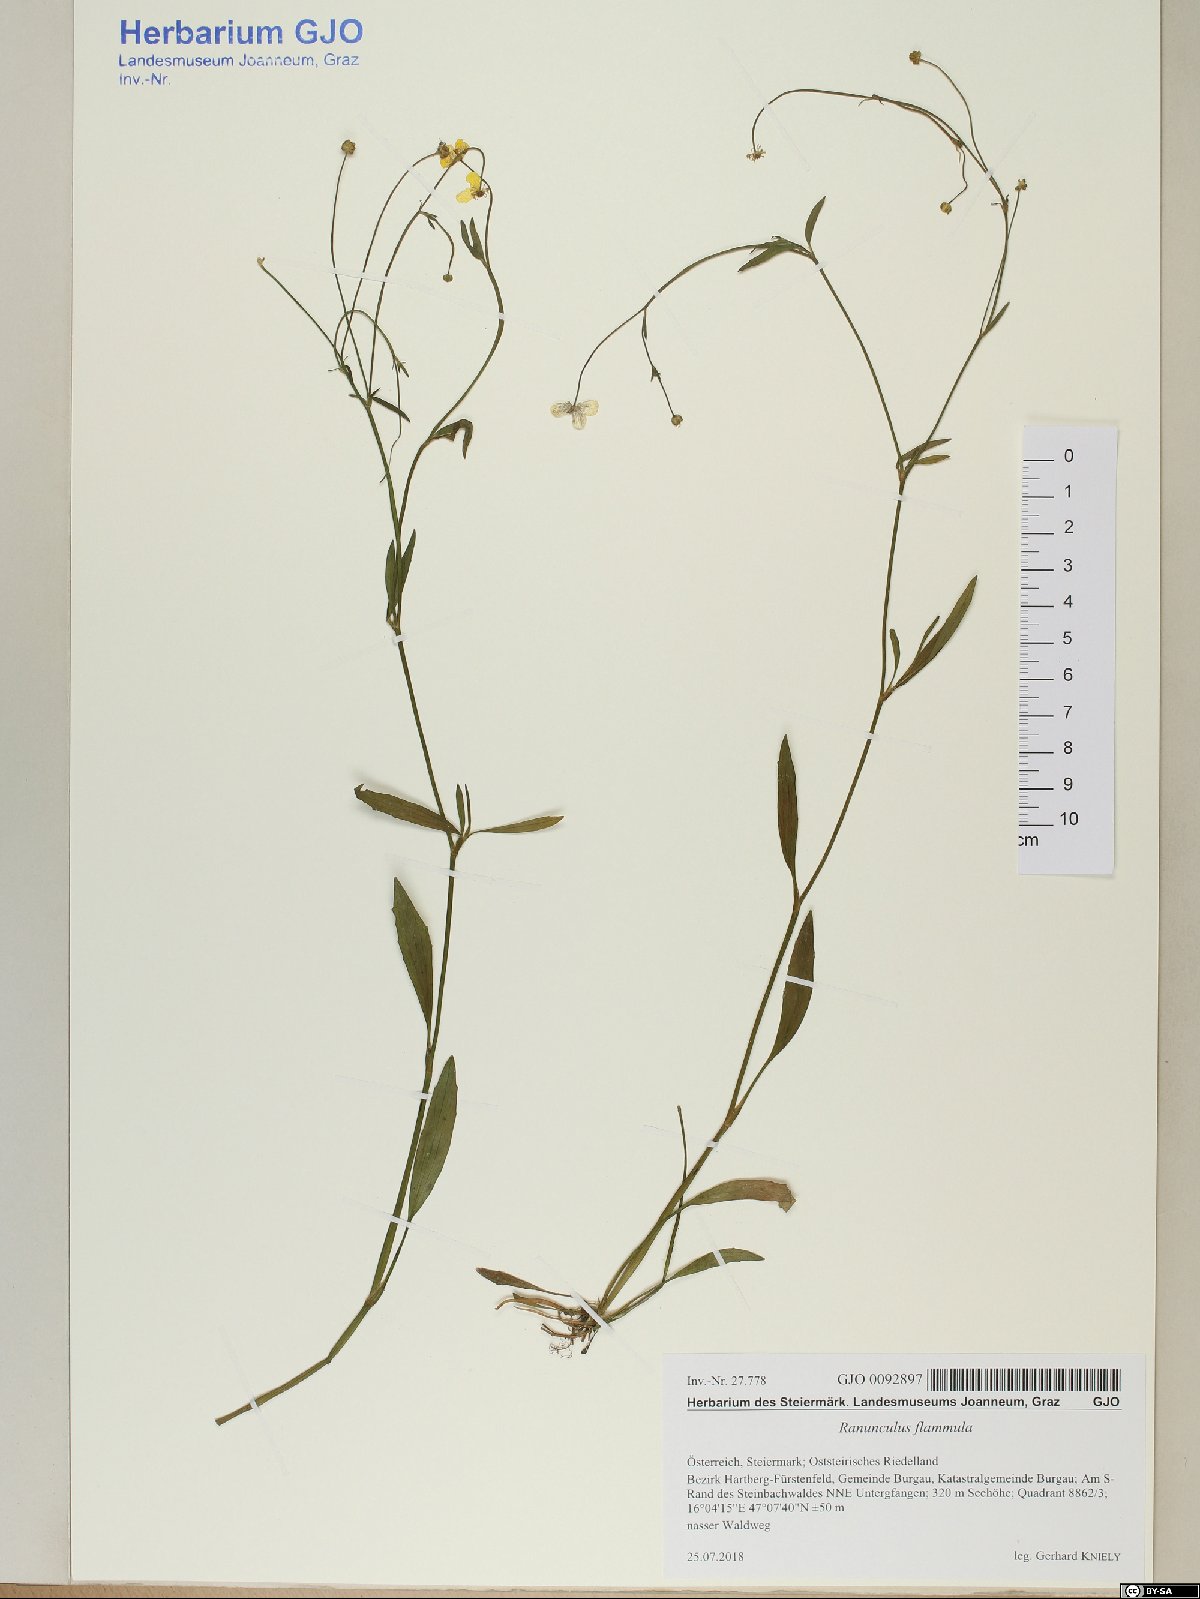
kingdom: Plantae
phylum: Tracheophyta
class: Magnoliopsida
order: Ranunculales
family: Ranunculaceae
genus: Ranunculus
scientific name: Ranunculus flammula
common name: Lesser spearwort
